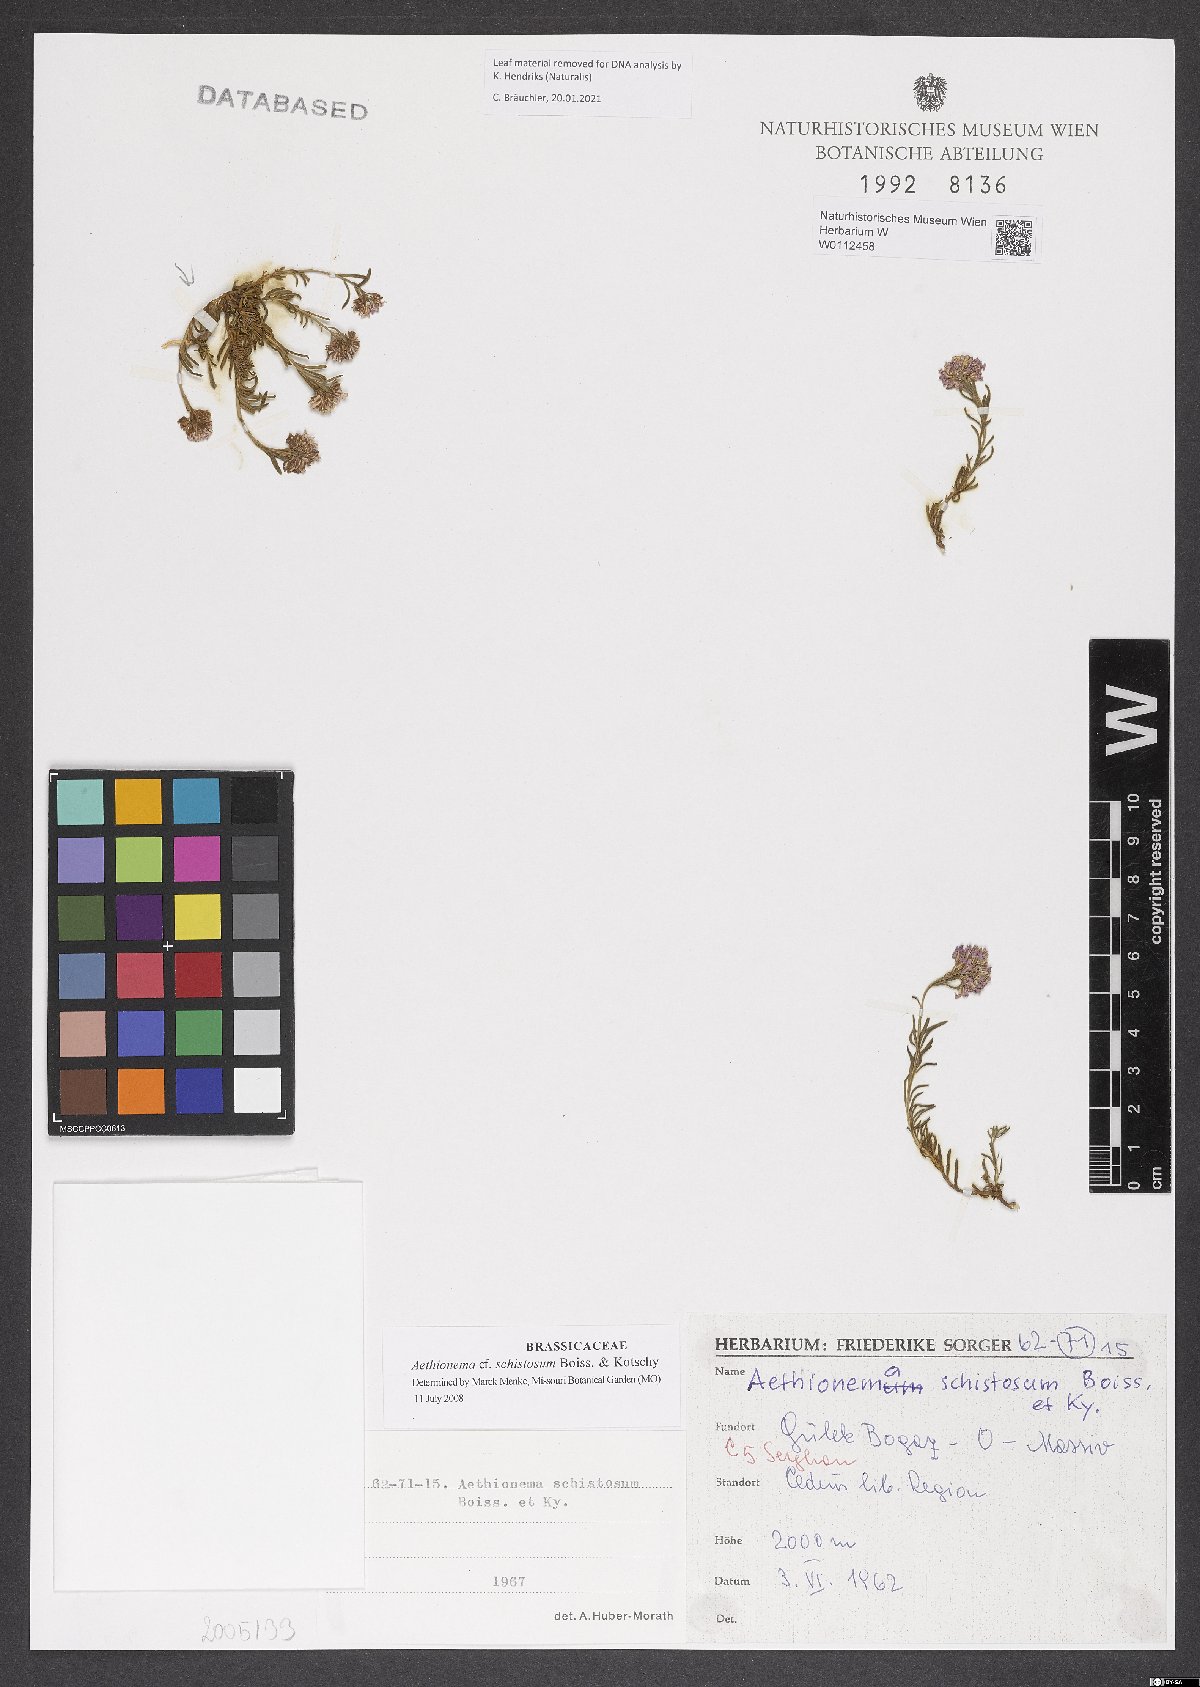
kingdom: Plantae
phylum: Tracheophyta
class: Magnoliopsida
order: Brassicales
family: Brassicaceae
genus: Aethionema
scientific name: Aethionema schistosum
